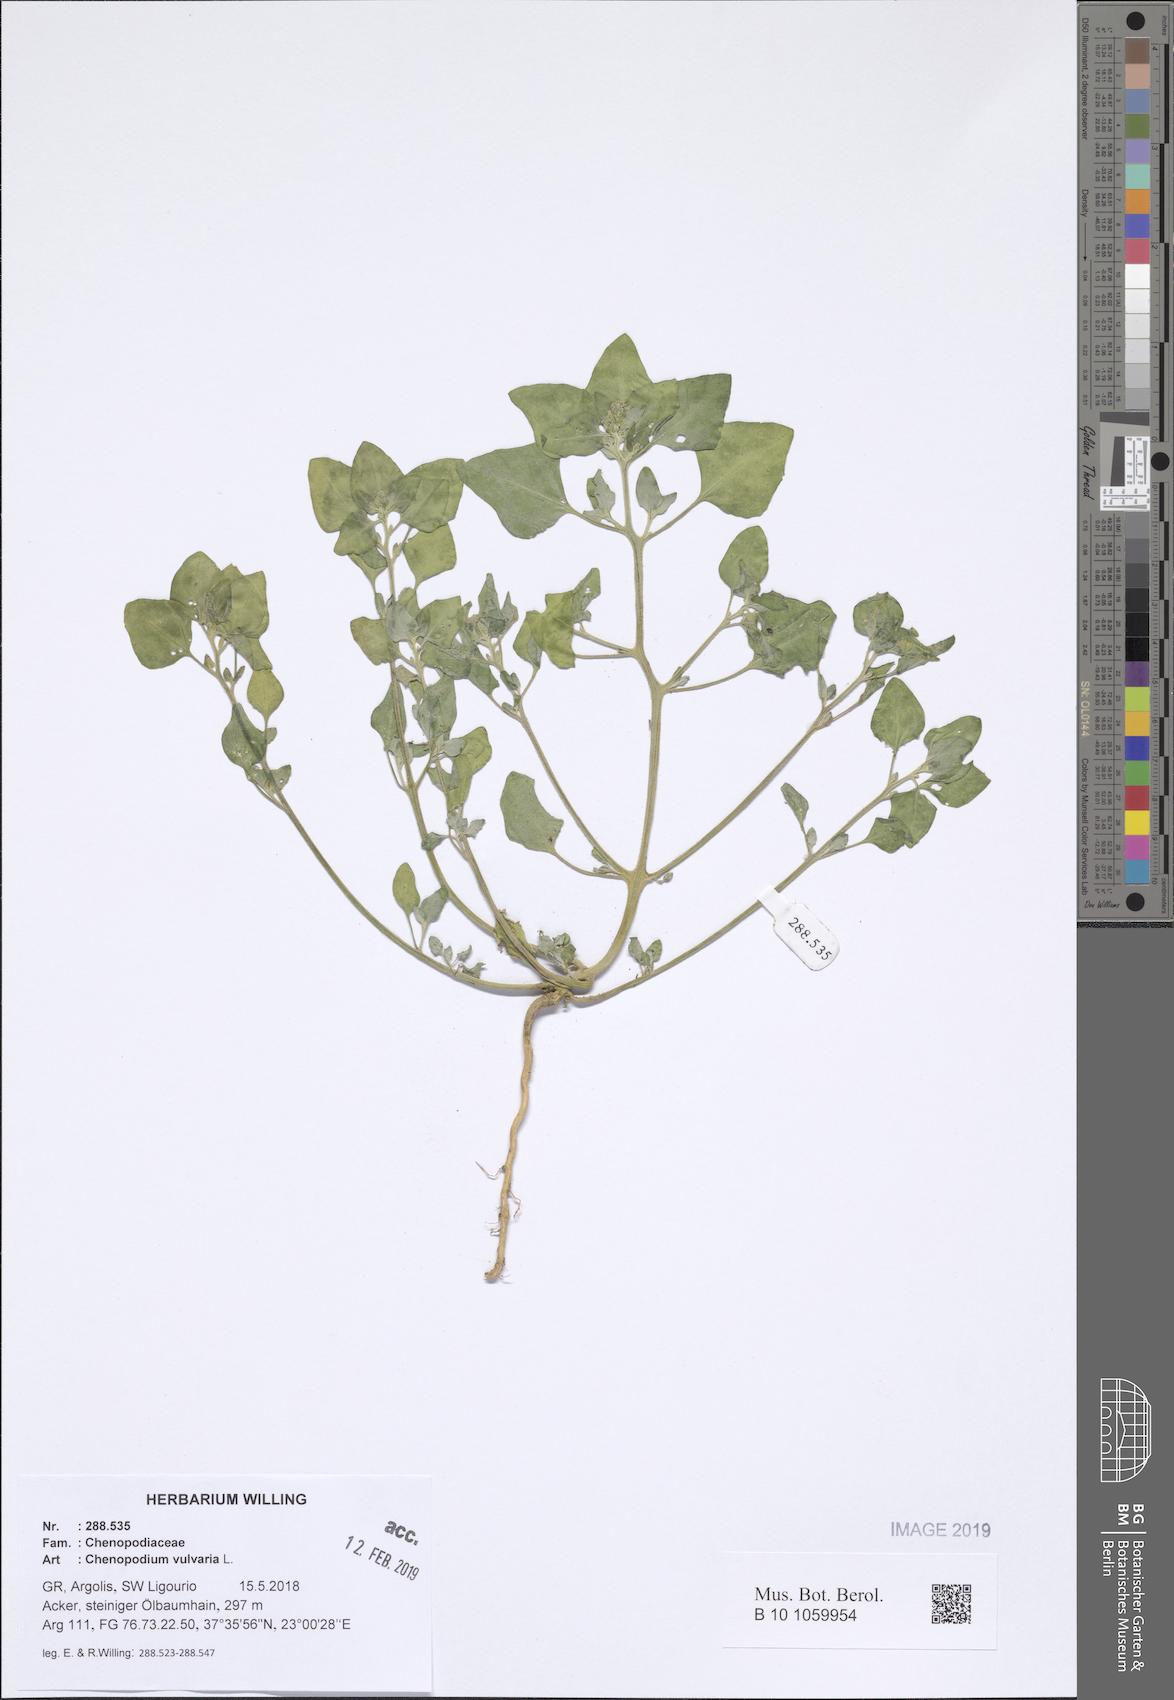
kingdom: Plantae
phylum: Tracheophyta
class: Magnoliopsida
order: Caryophyllales
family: Amaranthaceae
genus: Chenopodium
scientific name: Chenopodium vulvaria
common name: Stinking goosefoot
